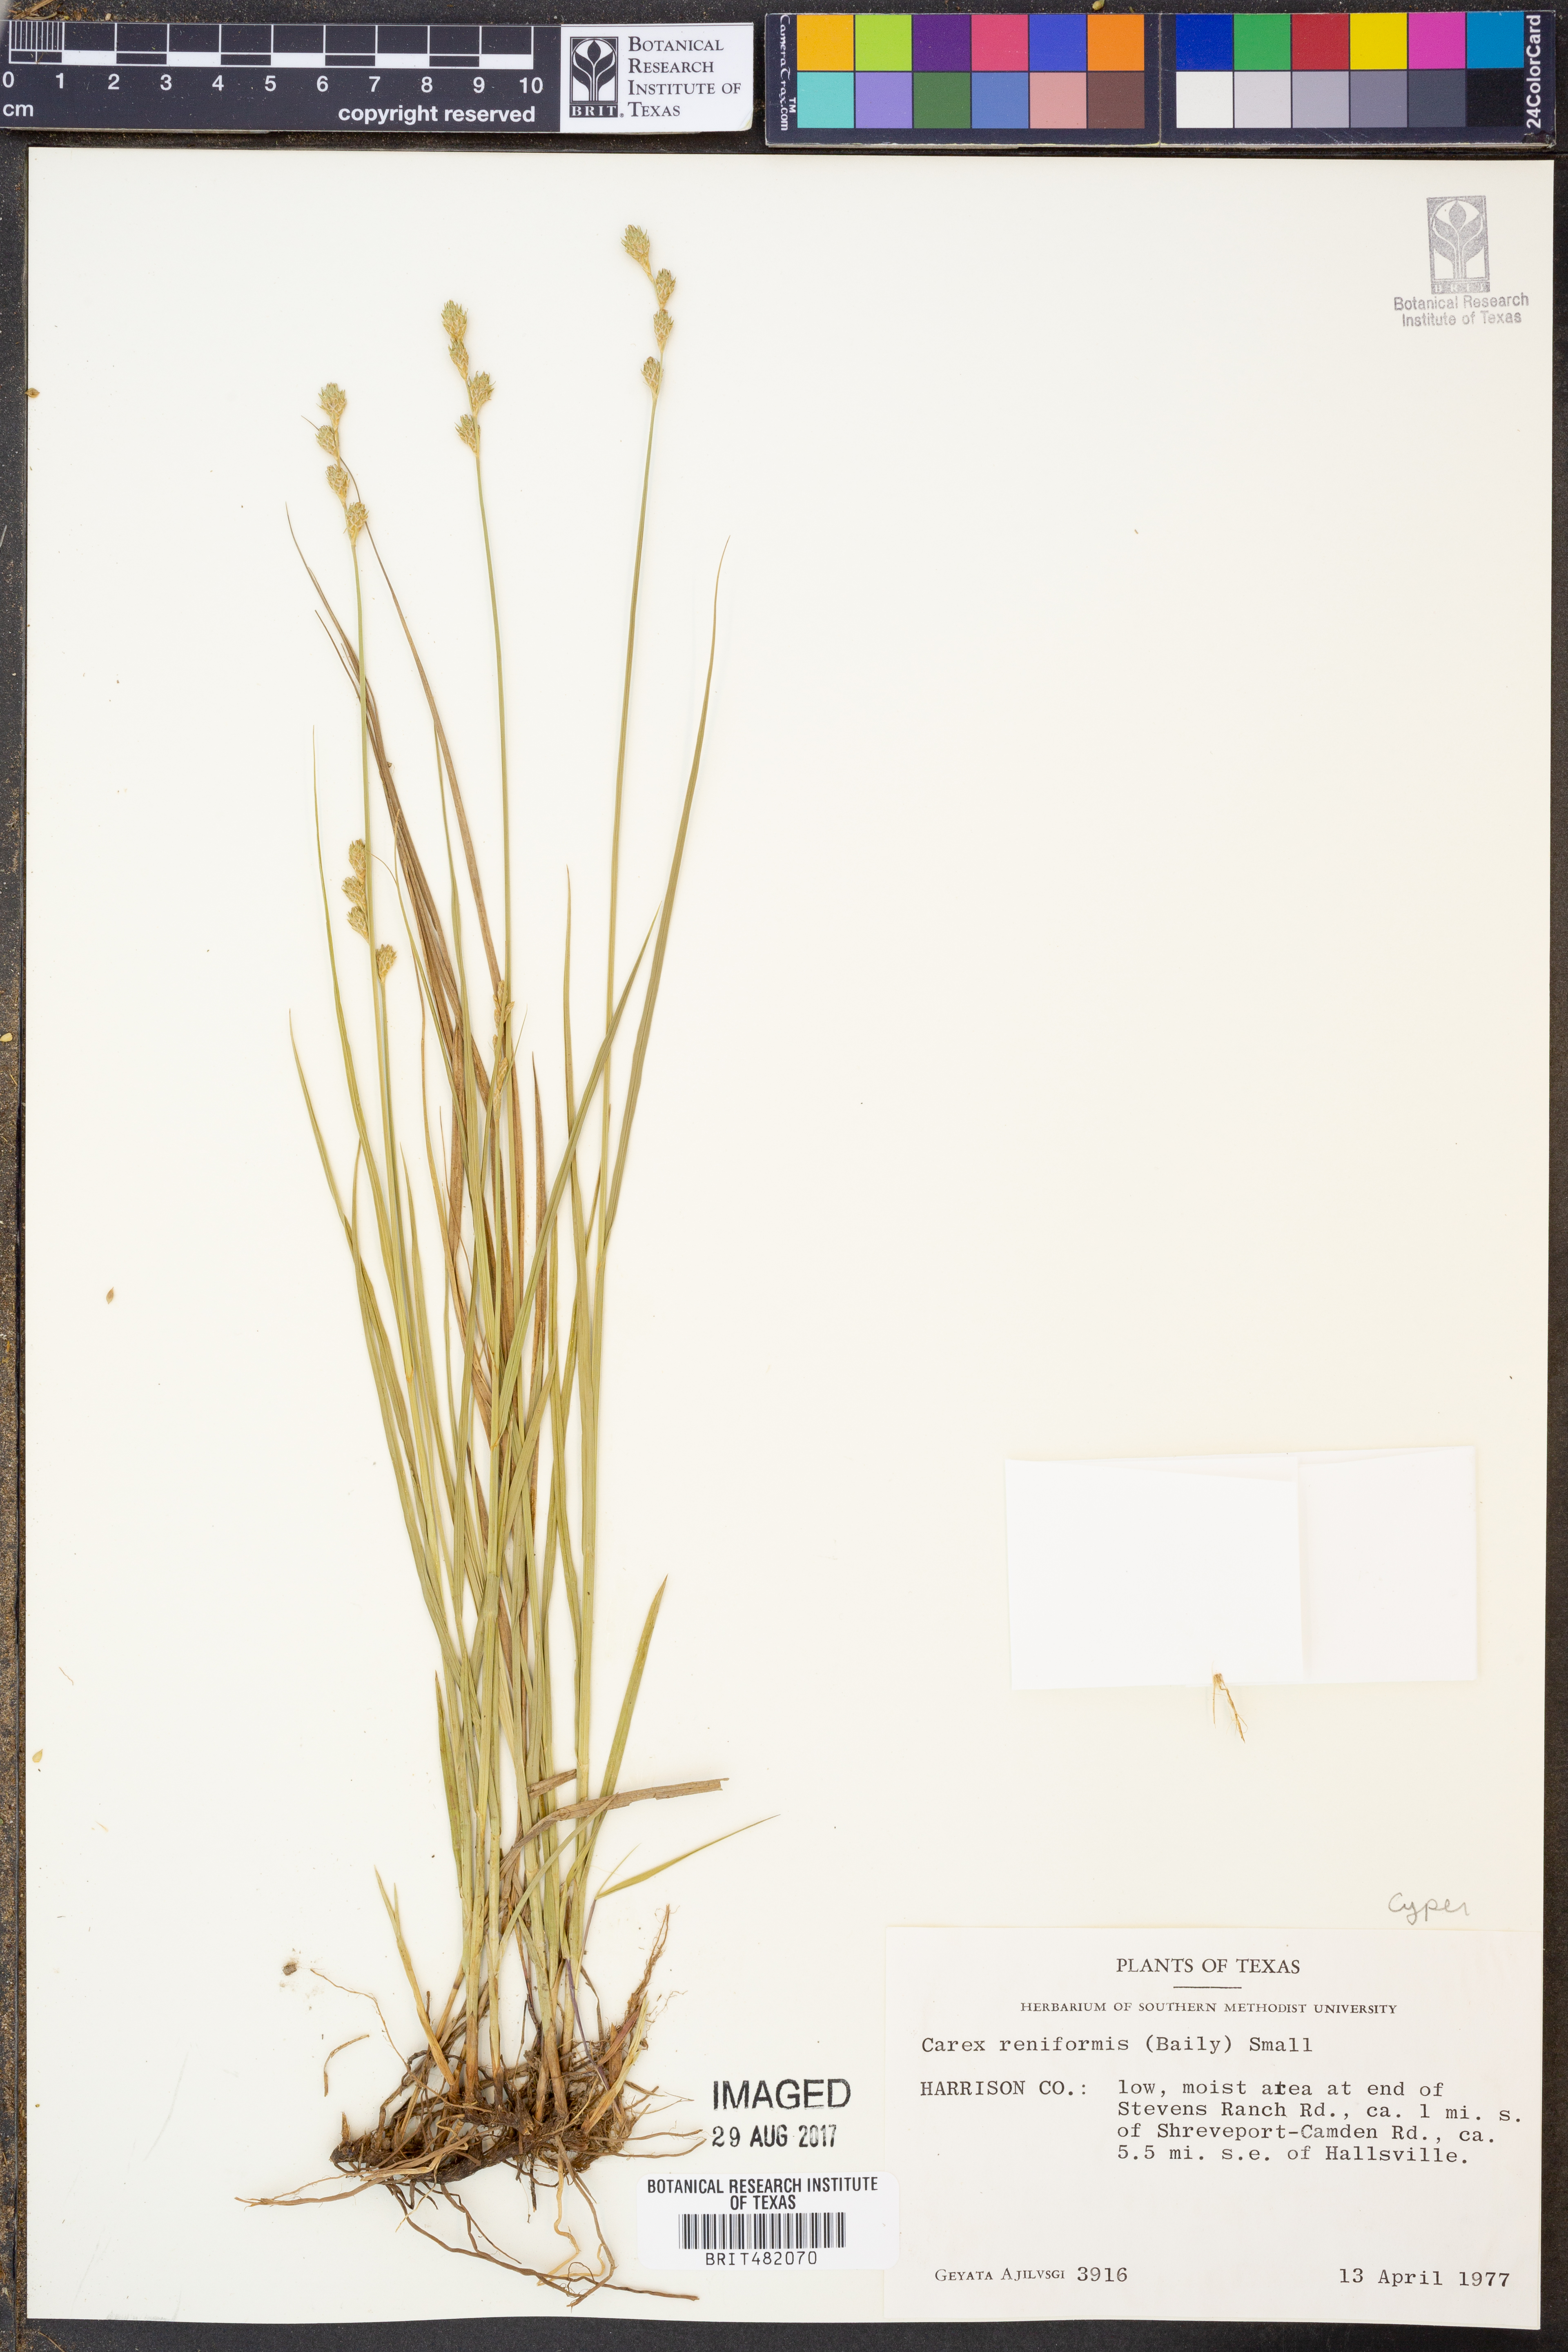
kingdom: Plantae
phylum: Tracheophyta
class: Liliopsida
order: Poales
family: Cyperaceae
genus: Carex
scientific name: Carex reniformis
